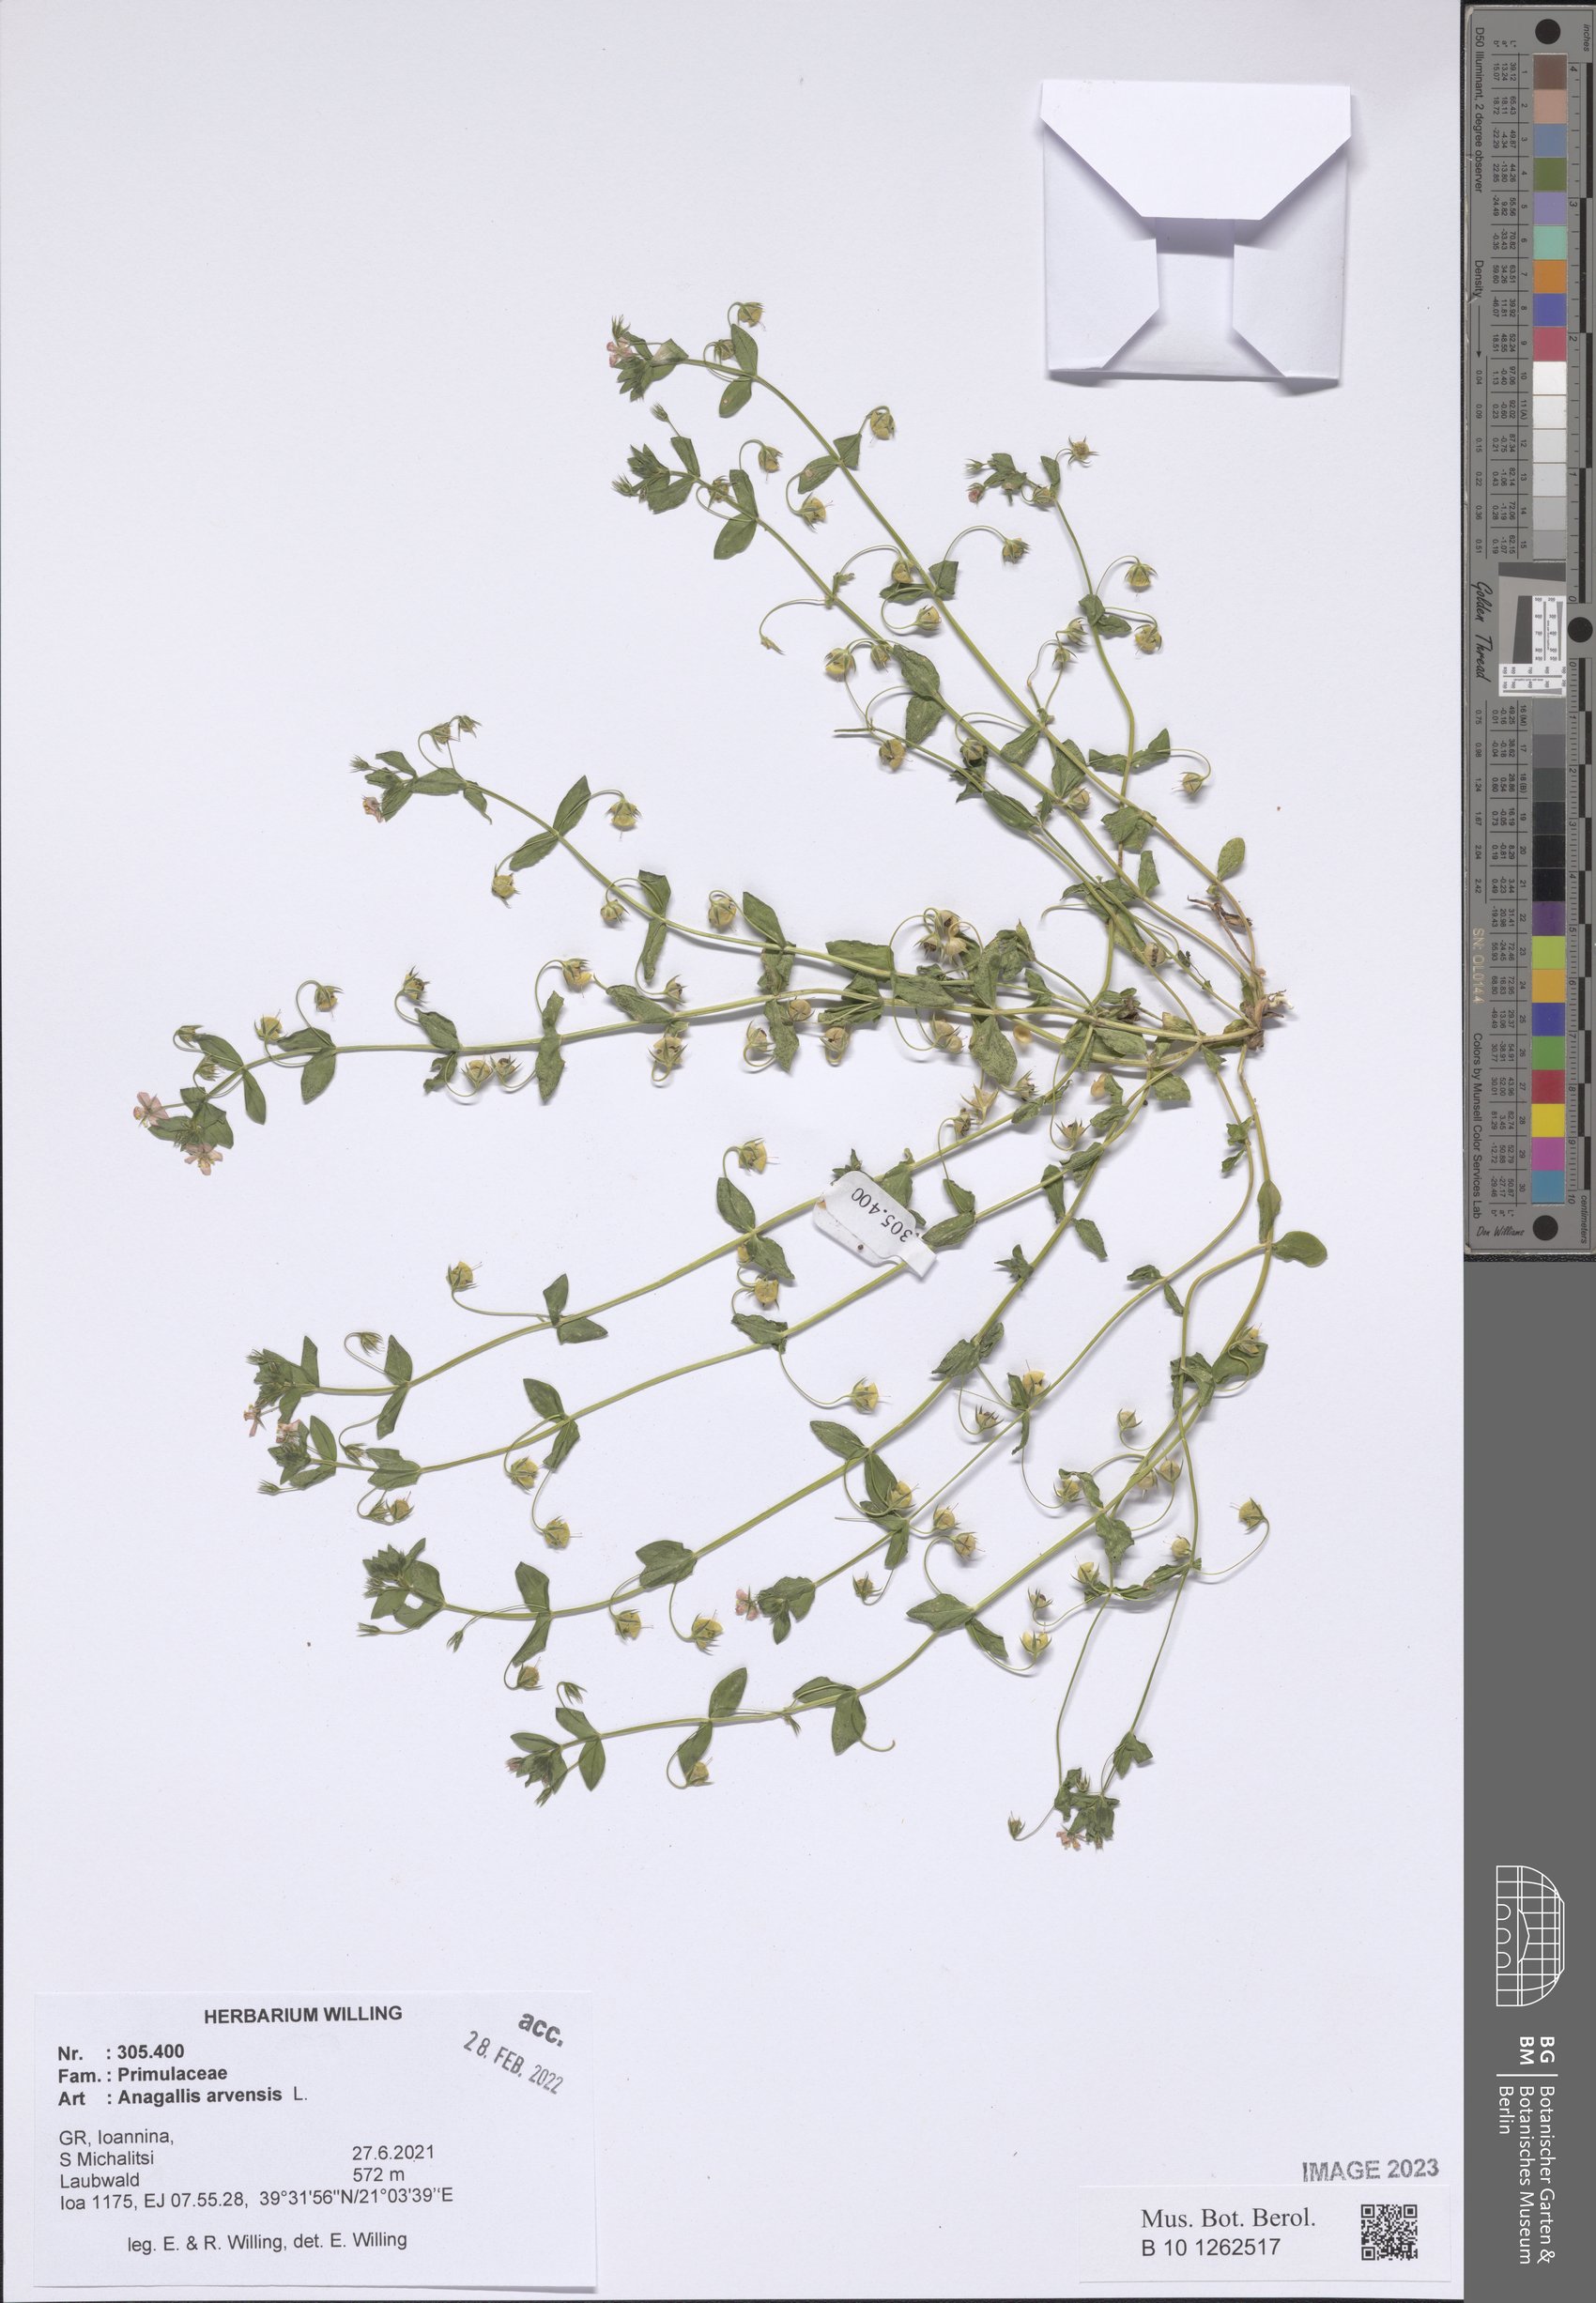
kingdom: Plantae
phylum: Tracheophyta
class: Magnoliopsida
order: Ericales
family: Primulaceae
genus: Lysimachia
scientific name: Lysimachia arvensis
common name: Scarlet pimpernel
